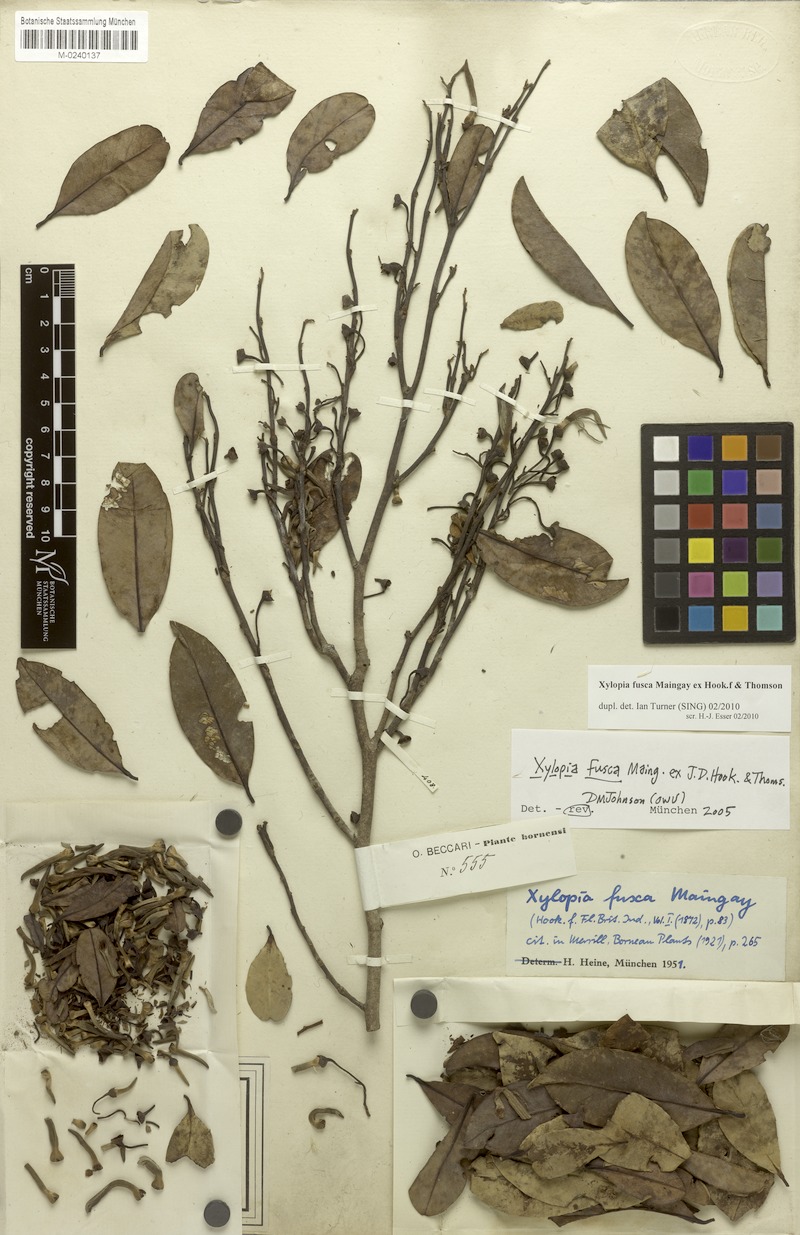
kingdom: Plantae
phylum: Tracheophyta
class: Magnoliopsida
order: Magnoliales
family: Annonaceae
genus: Xylopia
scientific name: Xylopia fusca
